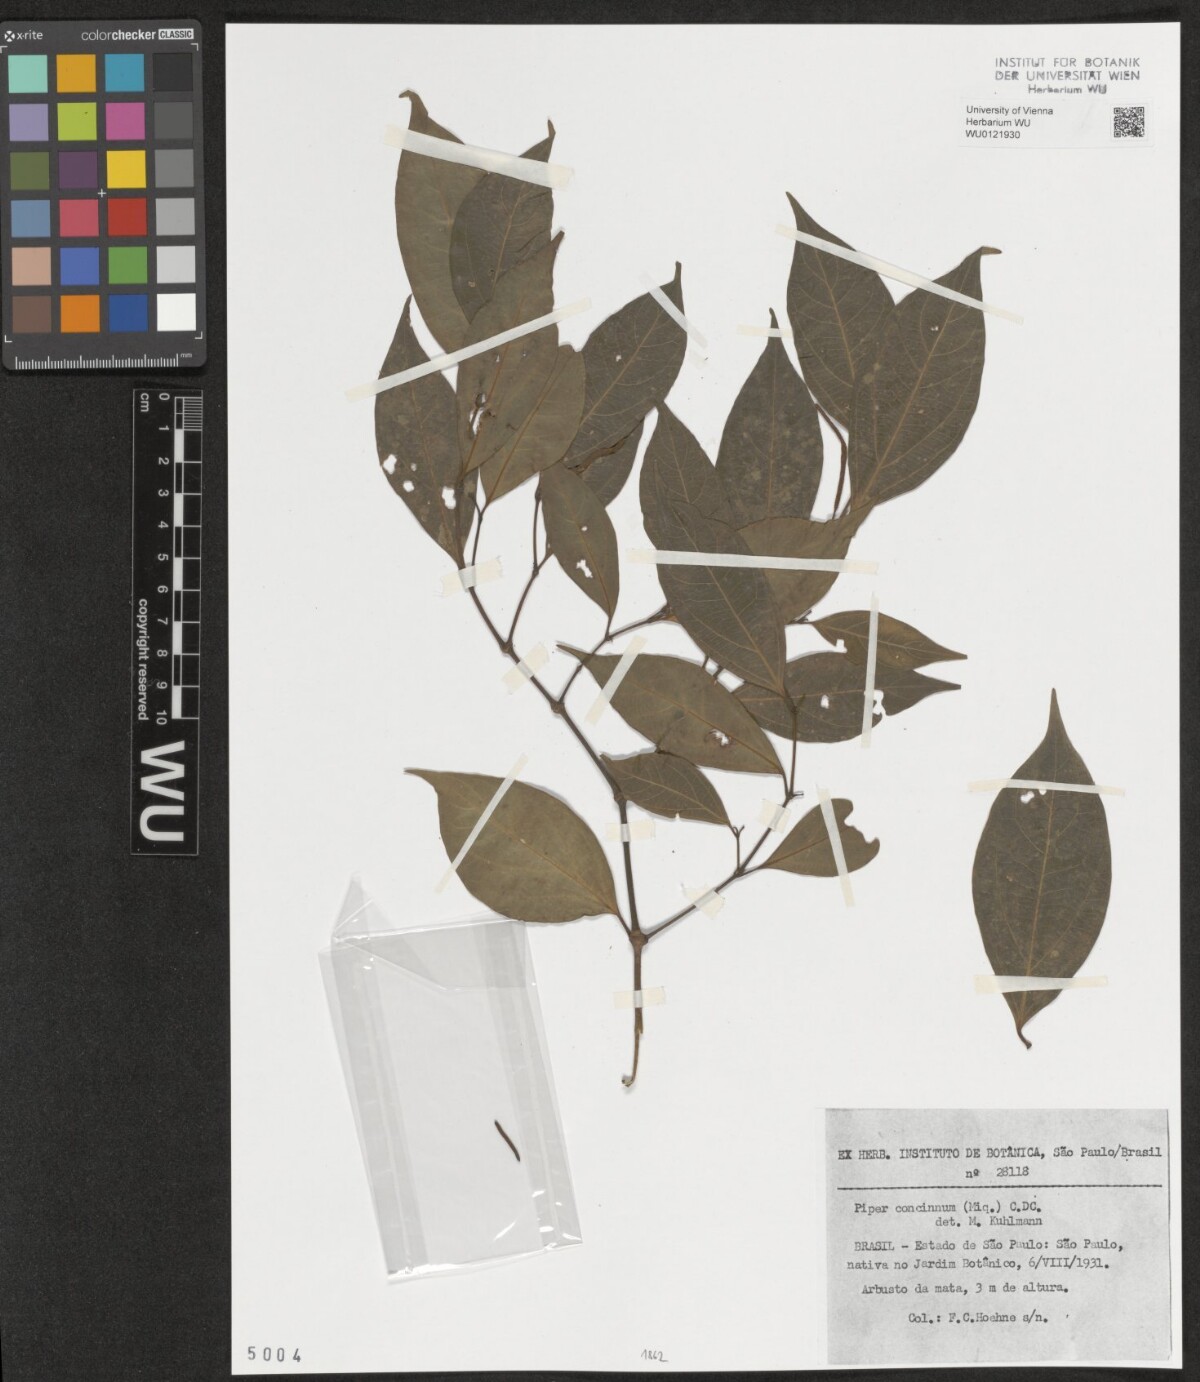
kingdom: Plantae
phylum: Tracheophyta
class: Magnoliopsida
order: Piperales
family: Piperaceae
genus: Peperomia
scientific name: Peperomia pellucida
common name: Man to man
